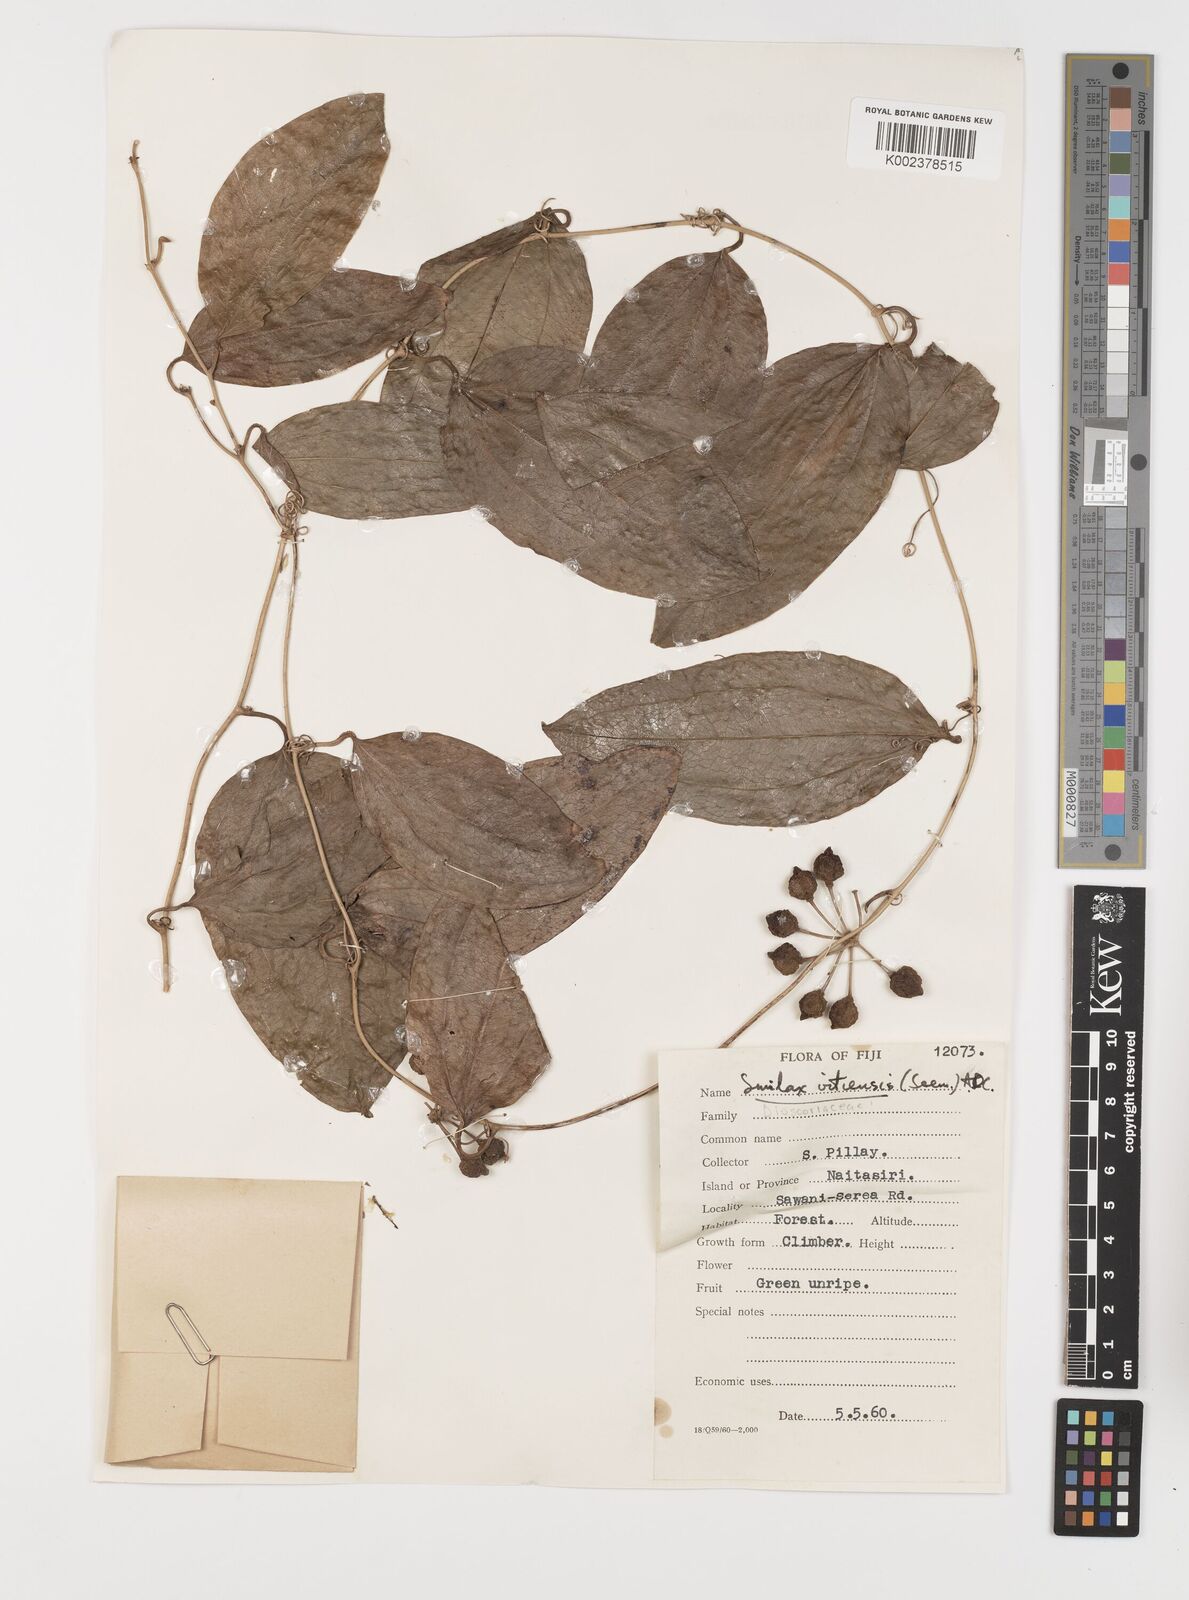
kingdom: Plantae
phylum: Tracheophyta
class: Liliopsida
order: Liliales
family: Smilacaceae
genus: Smilax
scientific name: Smilax vitiensis
